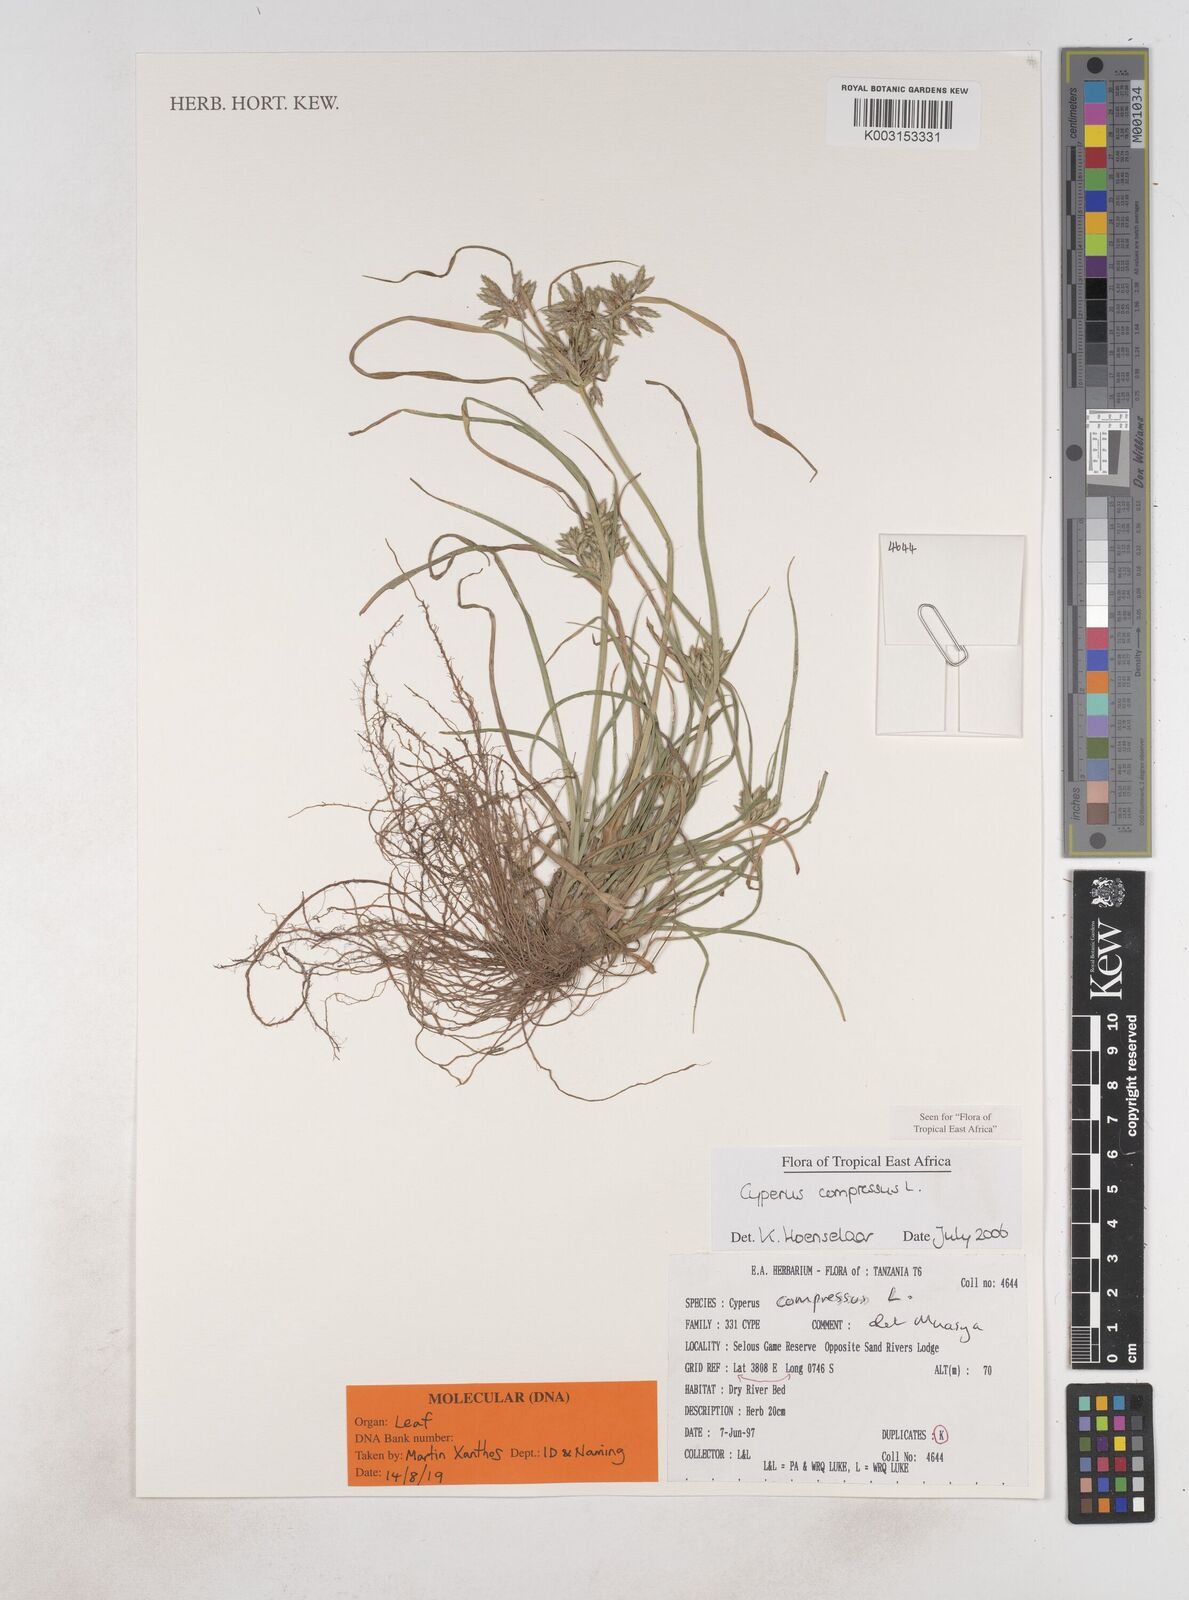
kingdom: Plantae
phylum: Tracheophyta
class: Liliopsida
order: Poales
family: Cyperaceae
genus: Cyperus
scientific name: Cyperus compressus
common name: Poorland flatsedge
